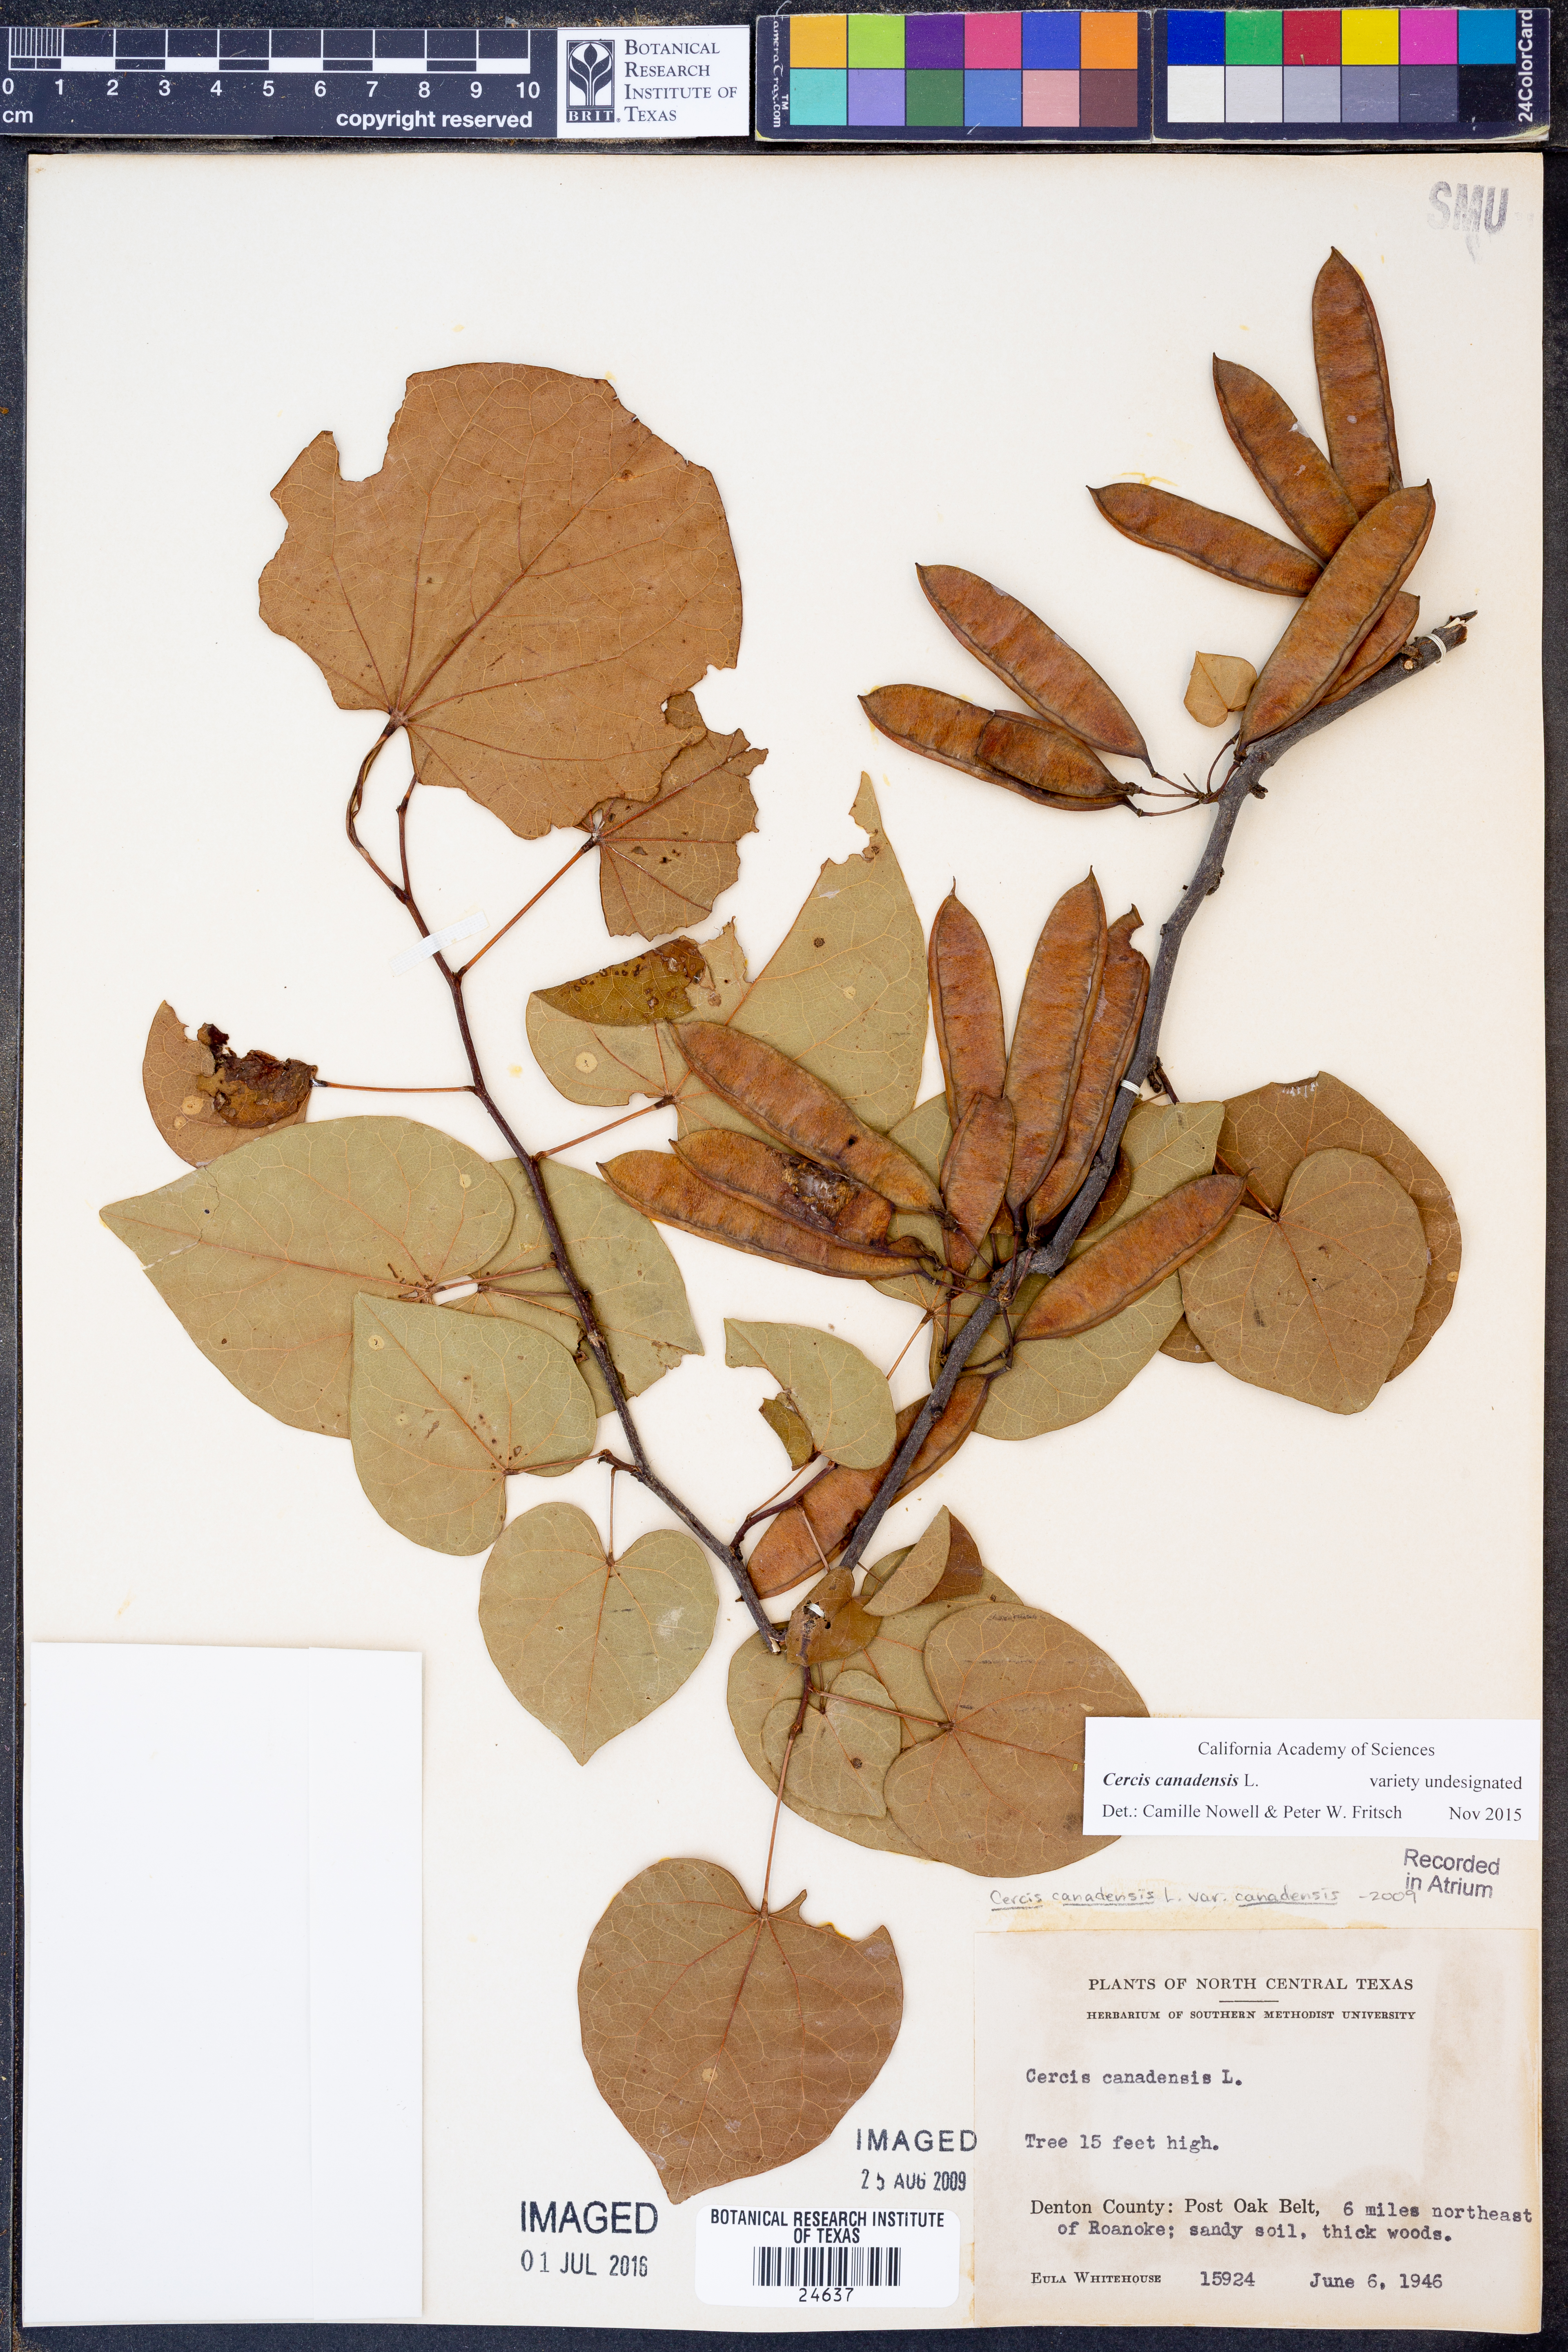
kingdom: Plantae
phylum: Tracheophyta
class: Magnoliopsida
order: Fabales
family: Fabaceae
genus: Cercis
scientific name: Cercis canadensis
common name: Eastern redbud
